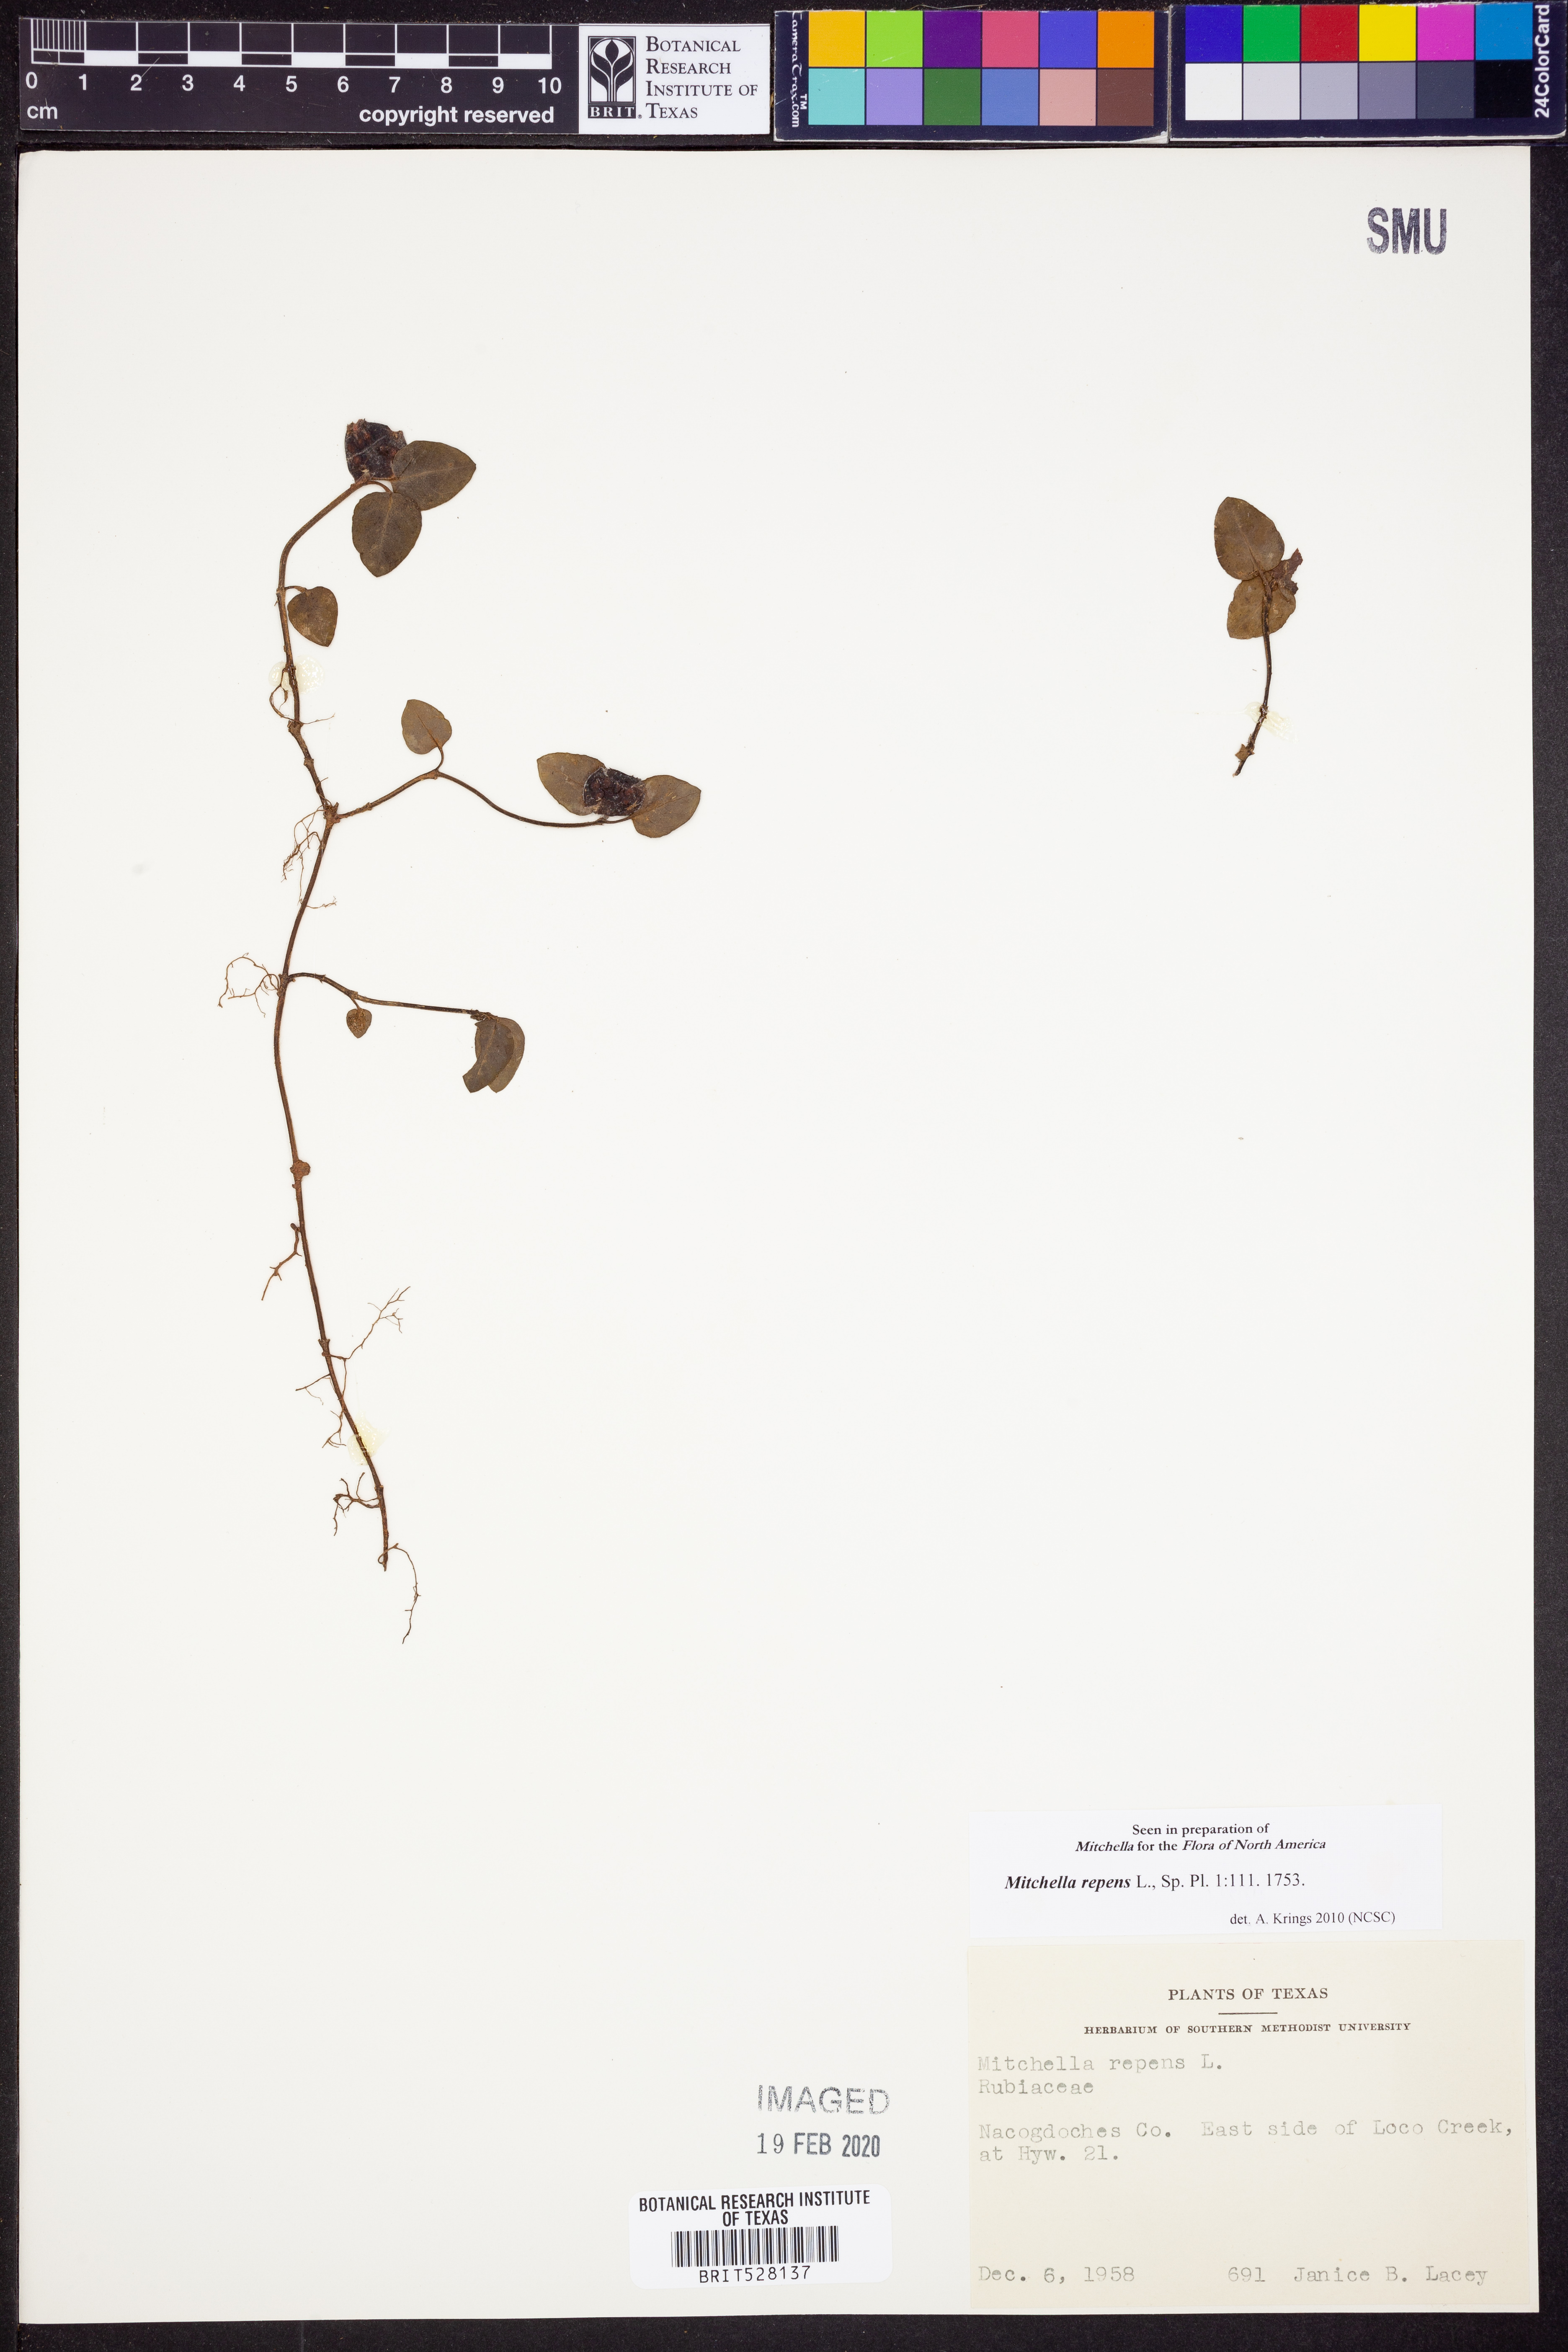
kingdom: Plantae
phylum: Tracheophyta
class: Magnoliopsida
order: Gentianales
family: Rubiaceae
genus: Mitchella
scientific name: Mitchella repens
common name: Partridge-berry
